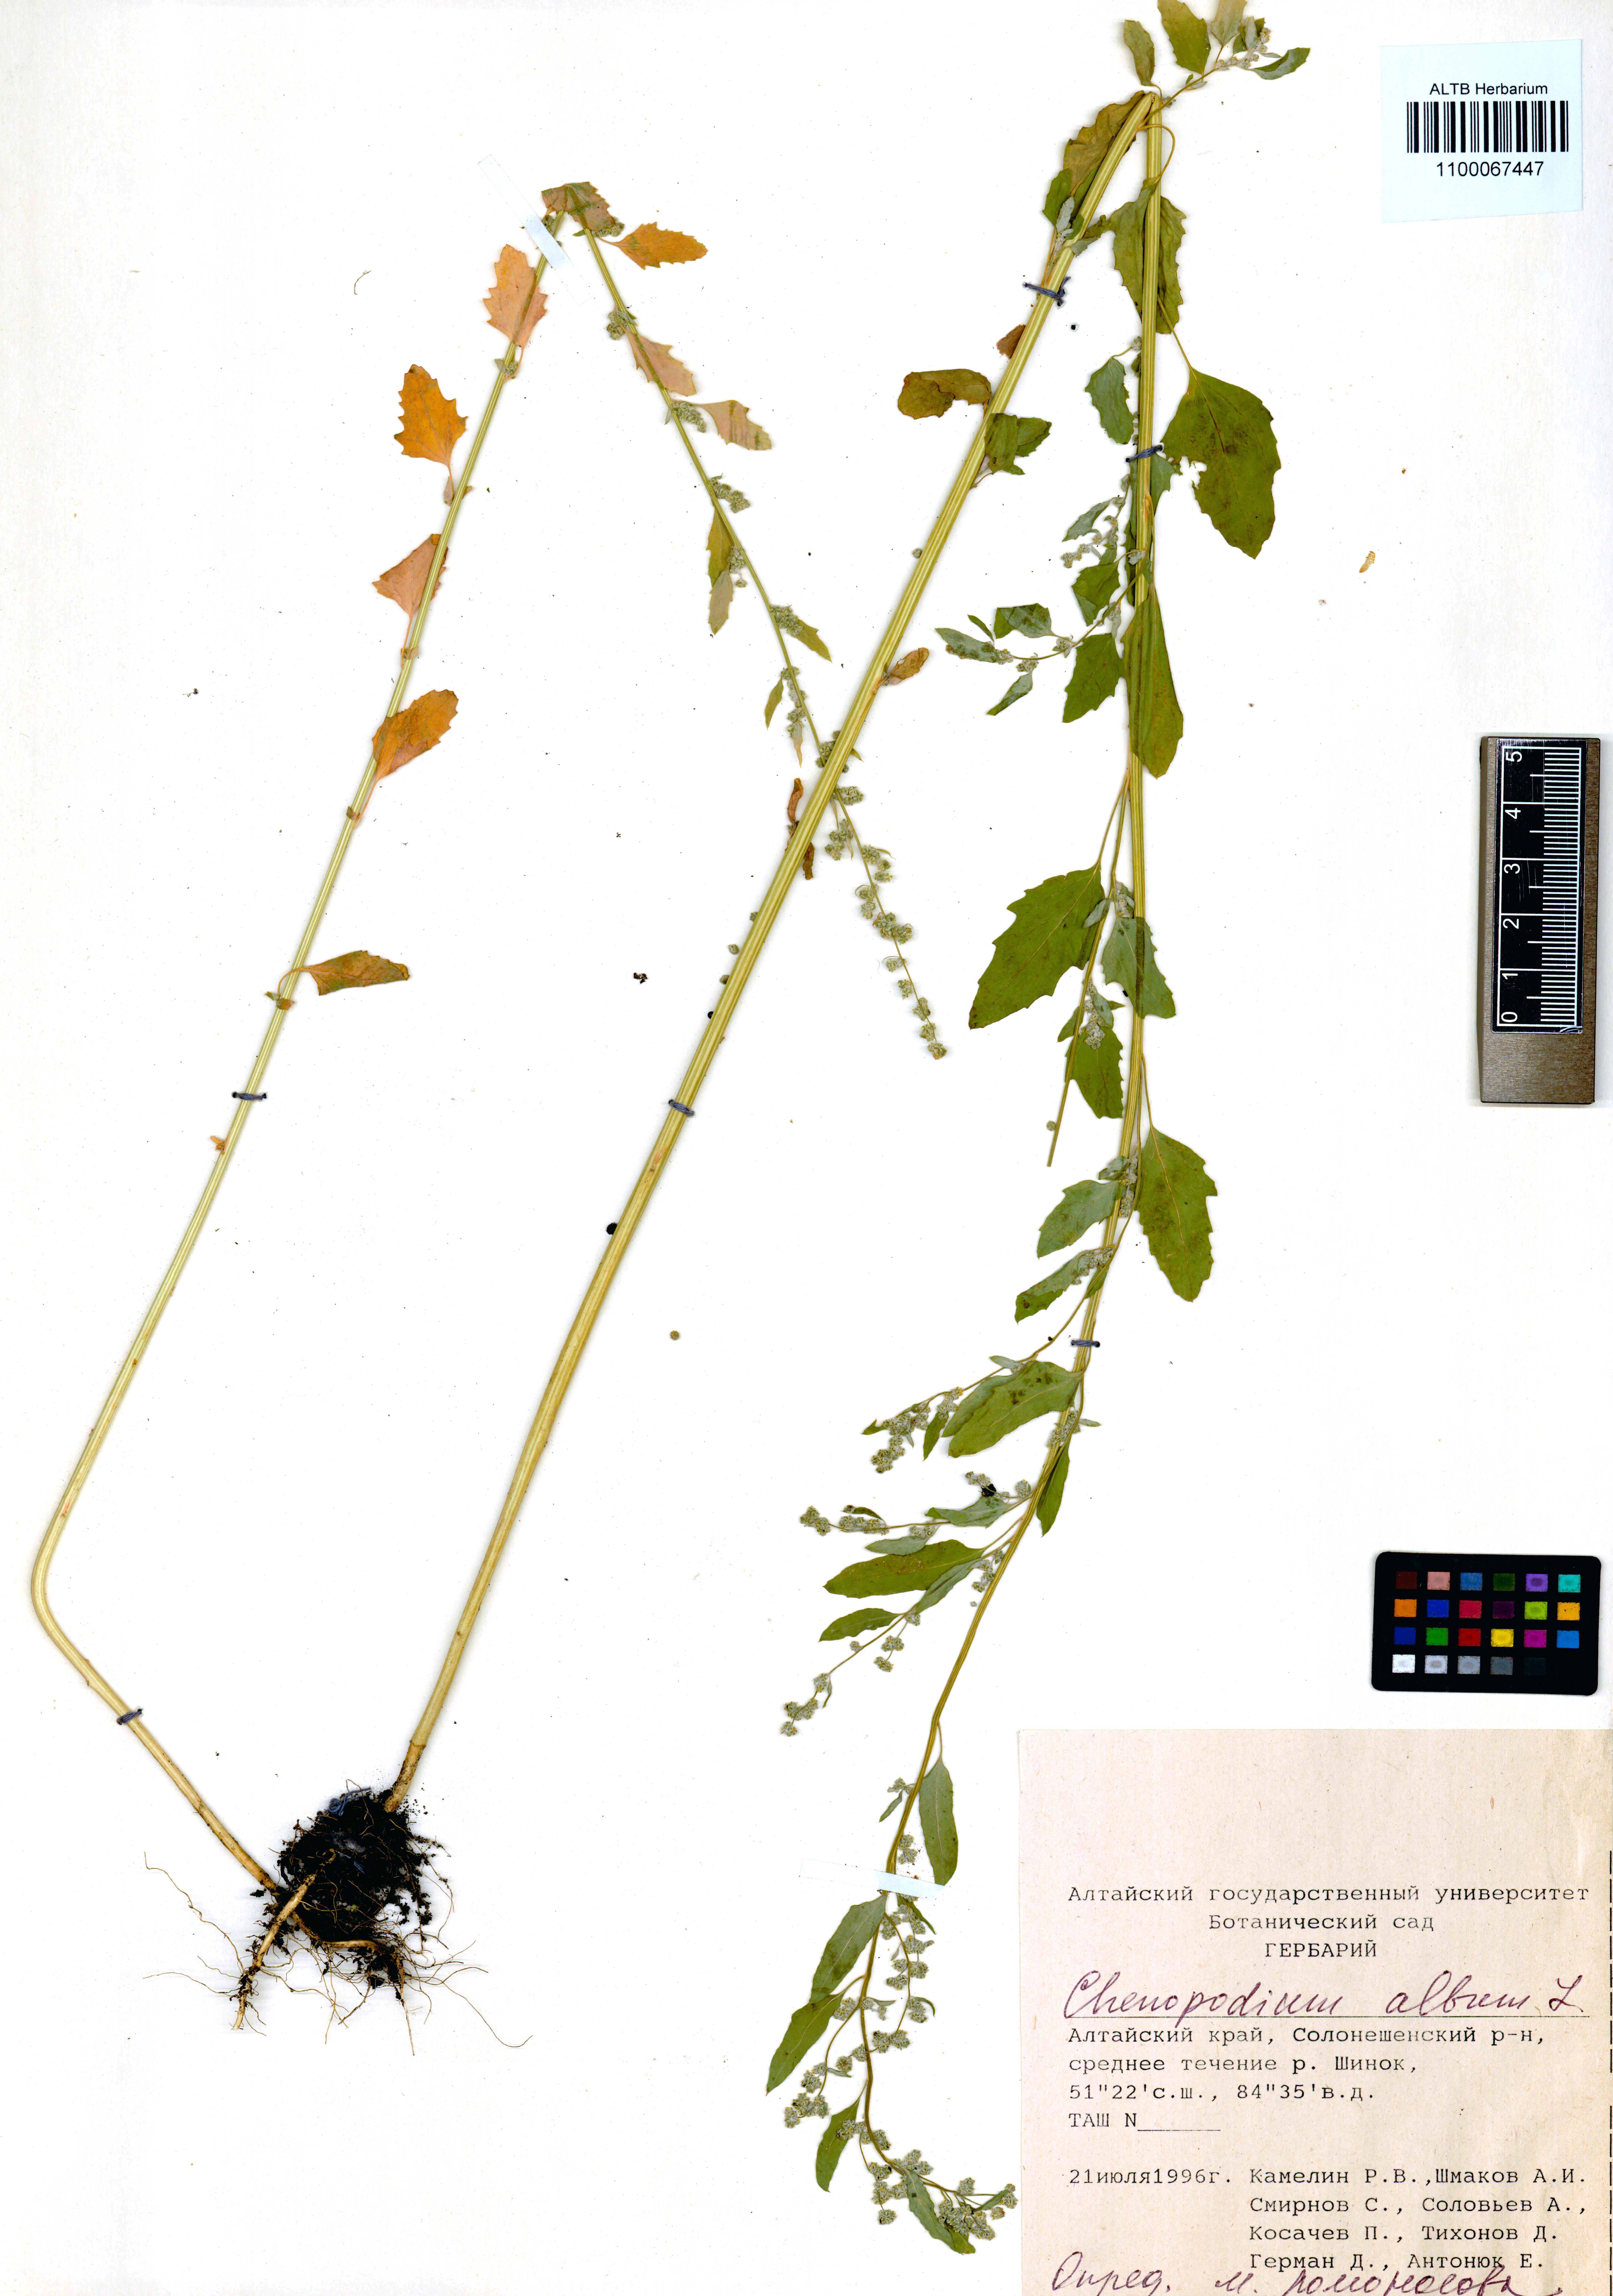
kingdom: Plantae
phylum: Tracheophyta
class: Magnoliopsida
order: Caryophyllales
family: Amaranthaceae
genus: Chenopodium
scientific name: Chenopodium album
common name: Fat-hen
